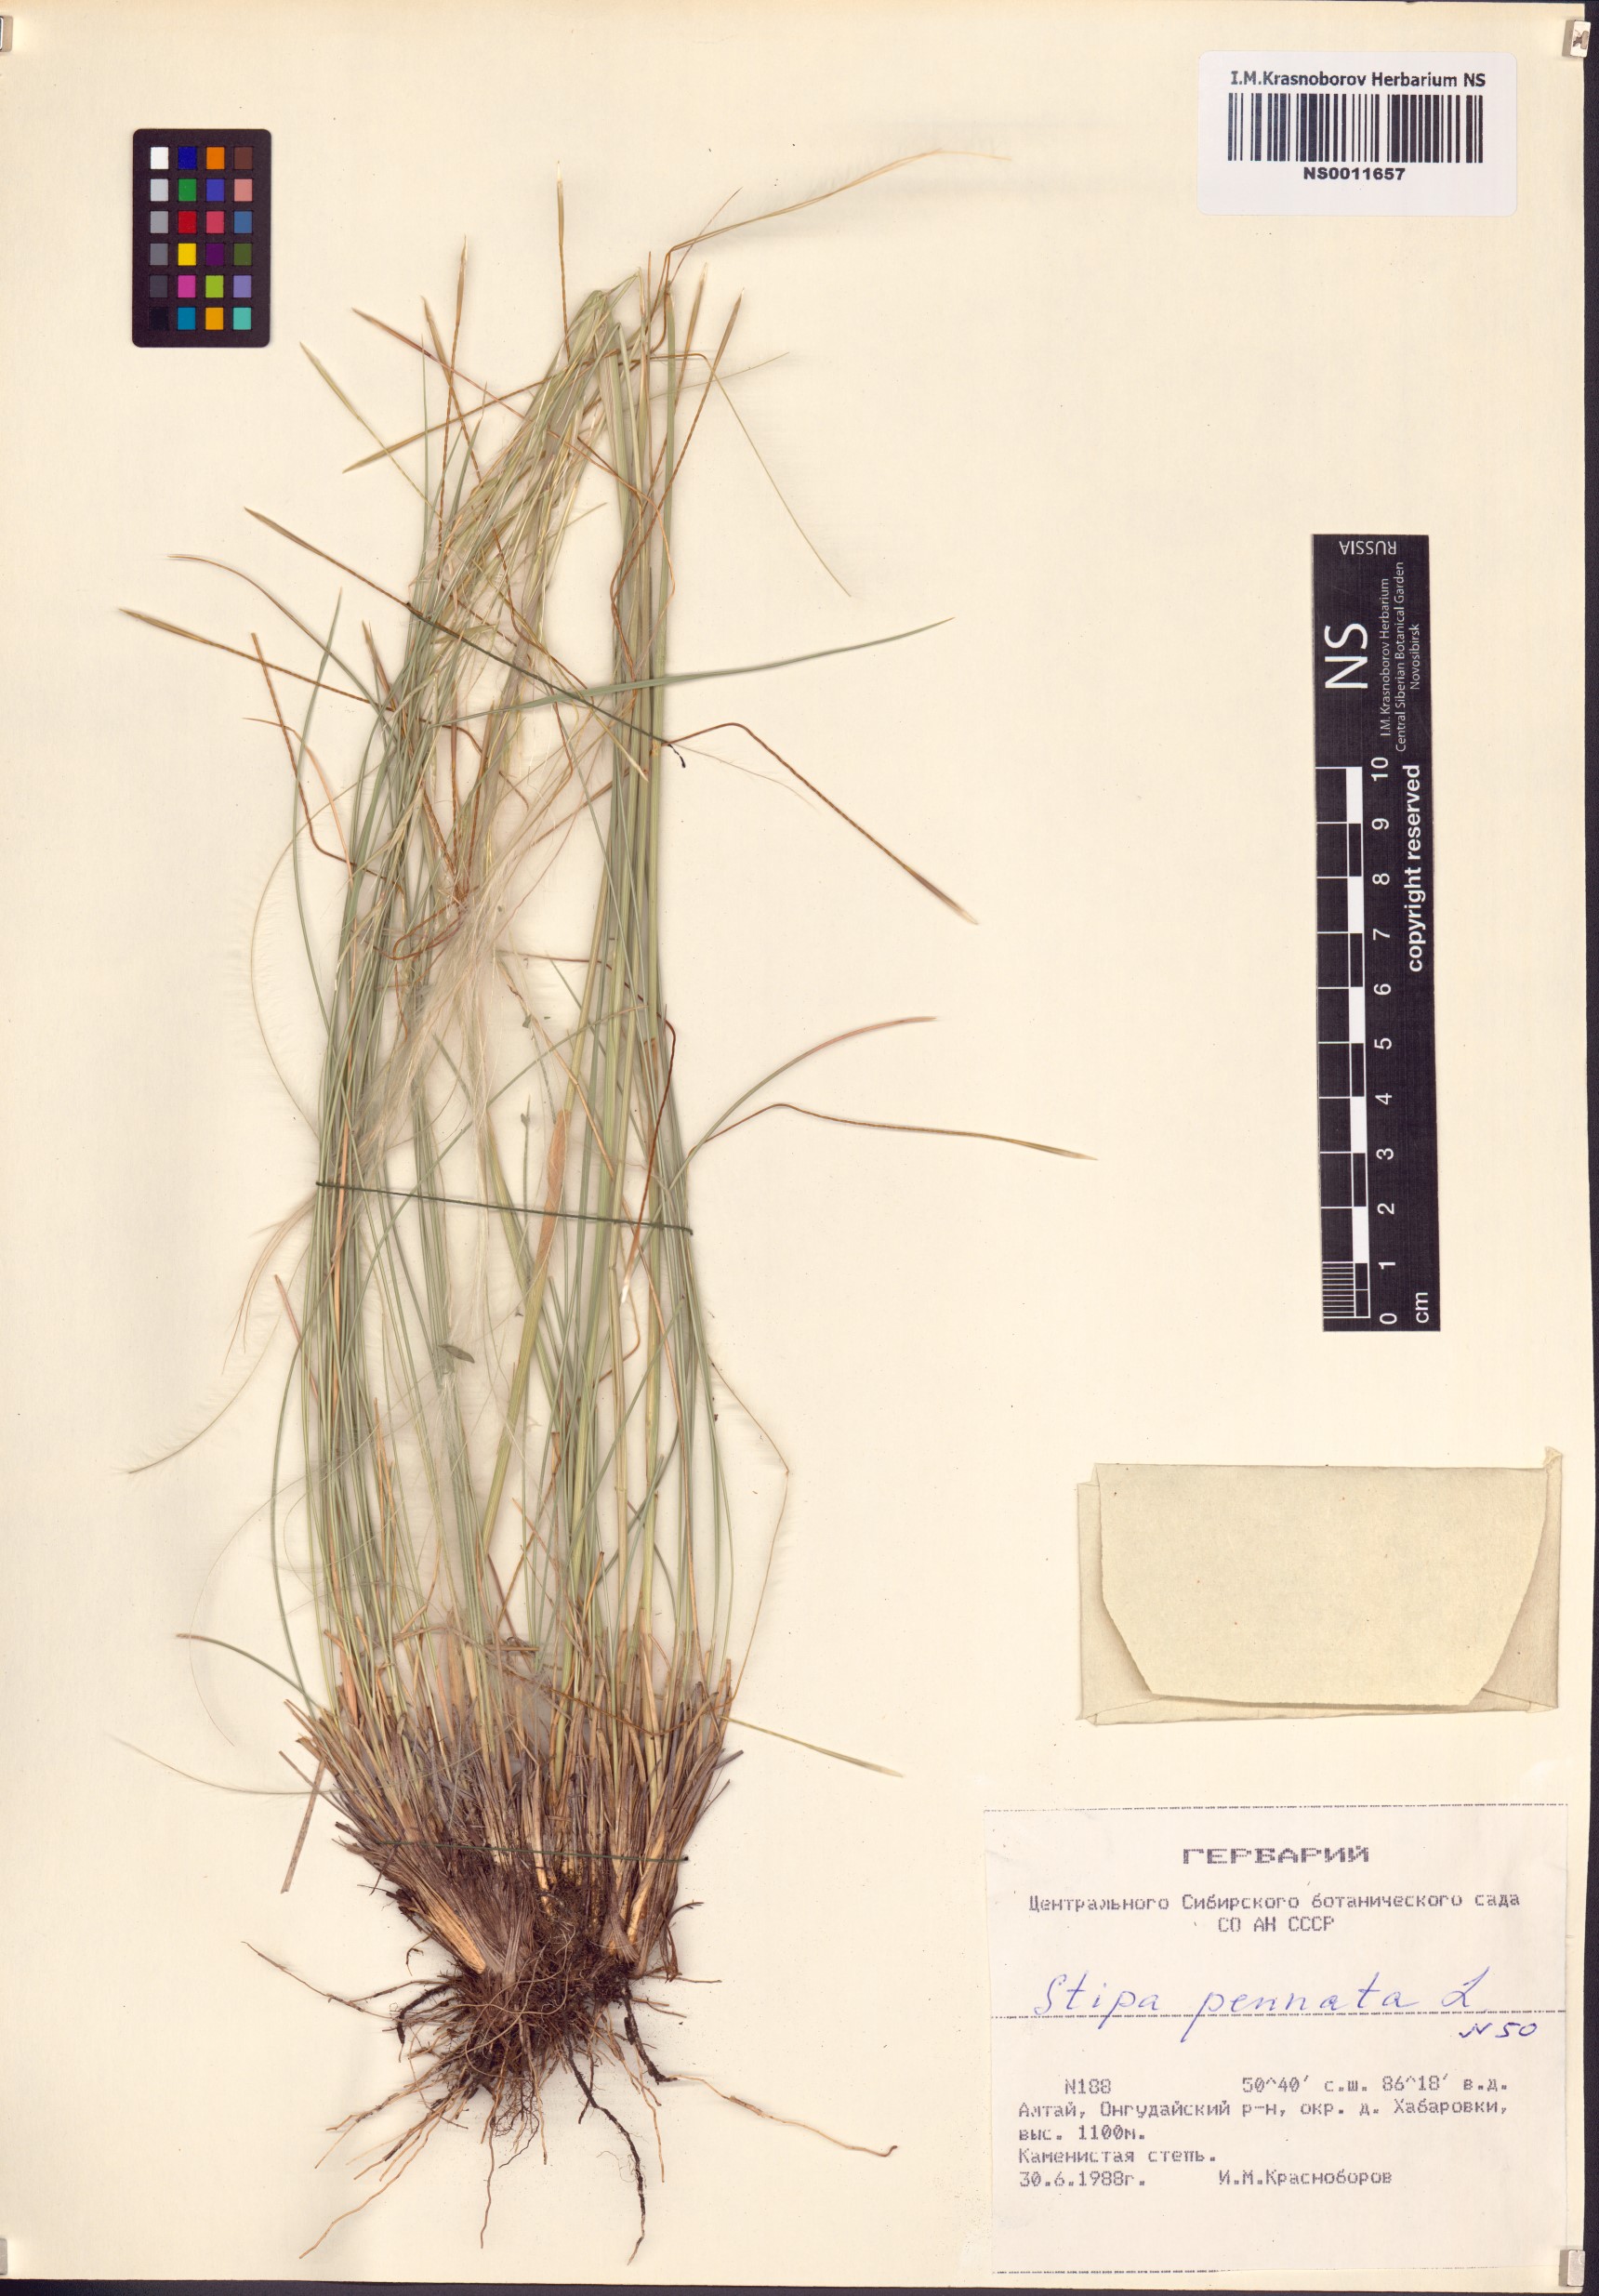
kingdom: Plantae
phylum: Tracheophyta
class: Liliopsida
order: Poales
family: Poaceae
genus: Stipa
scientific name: Stipa pennata
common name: European feather grass
